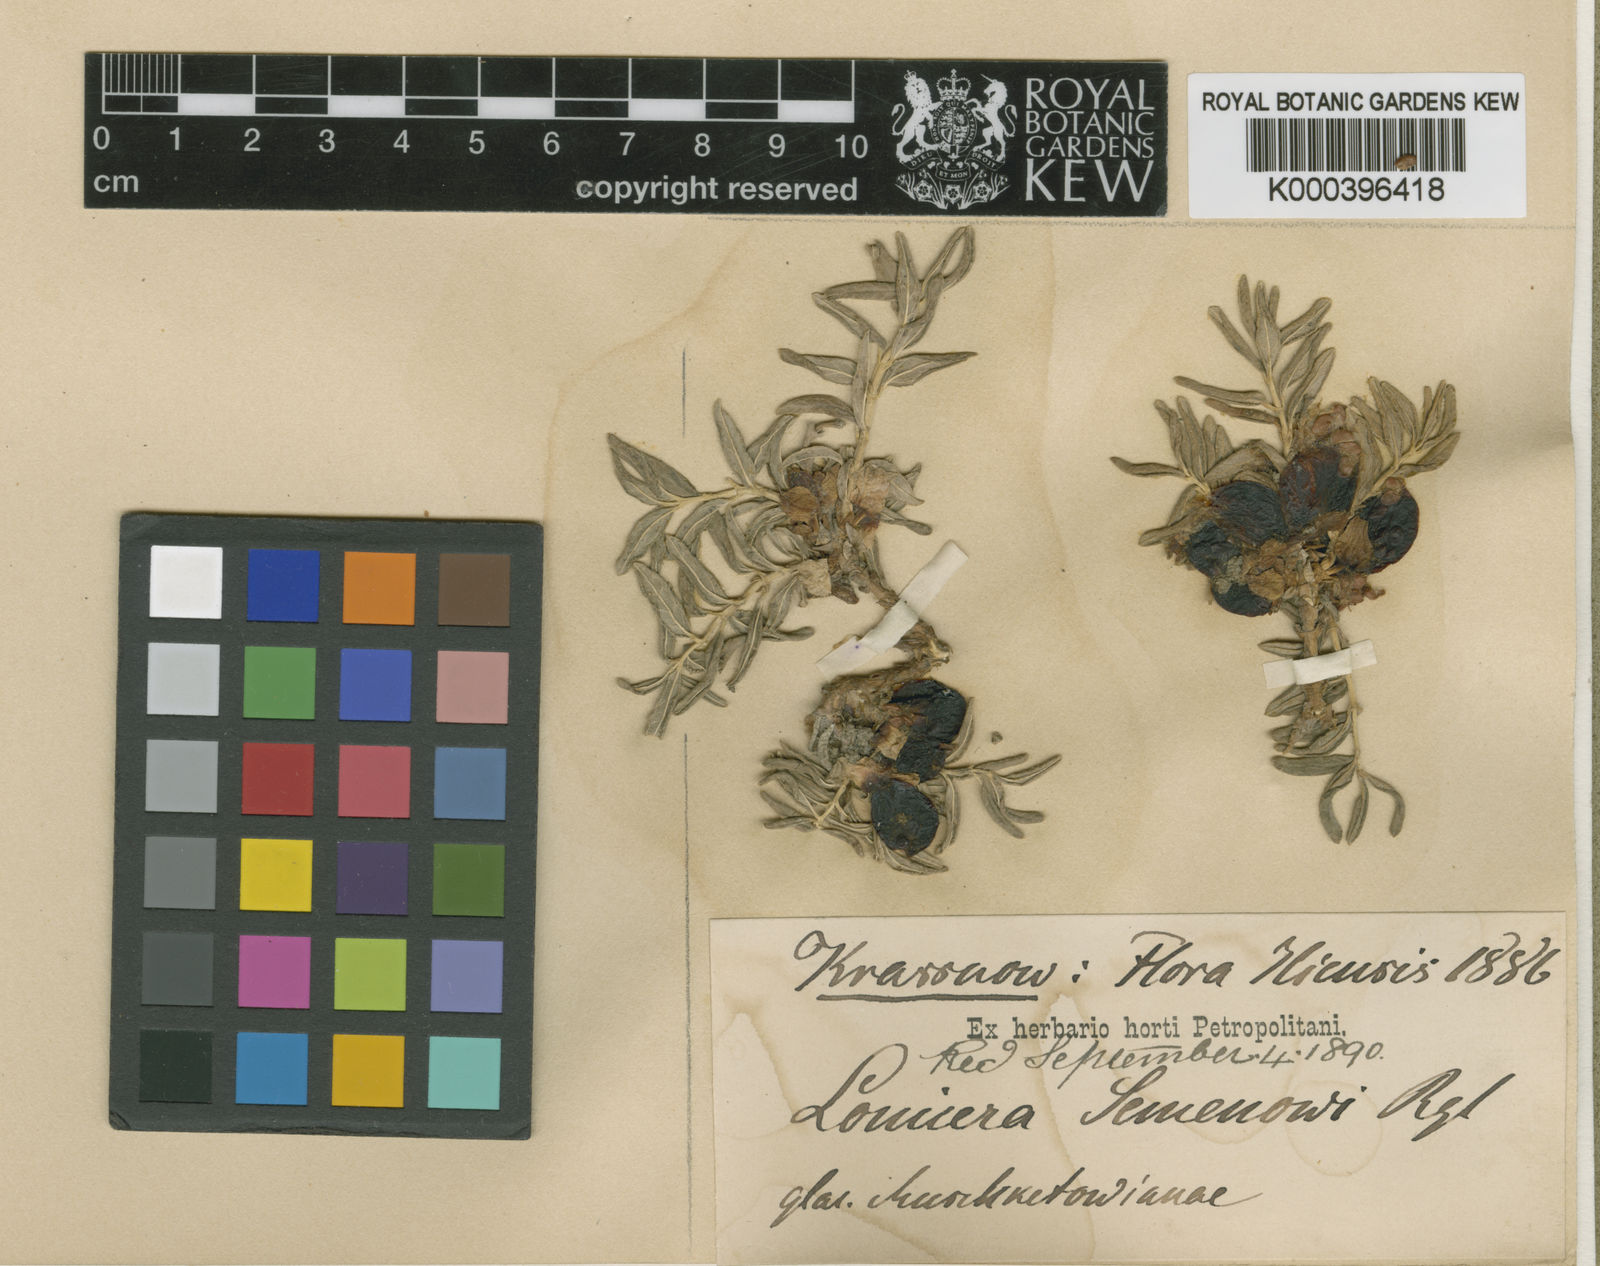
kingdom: Plantae
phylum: Tracheophyta
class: Magnoliopsida
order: Dipsacales
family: Caprifoliaceae
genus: Lonicera
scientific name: Lonicera semenovii
